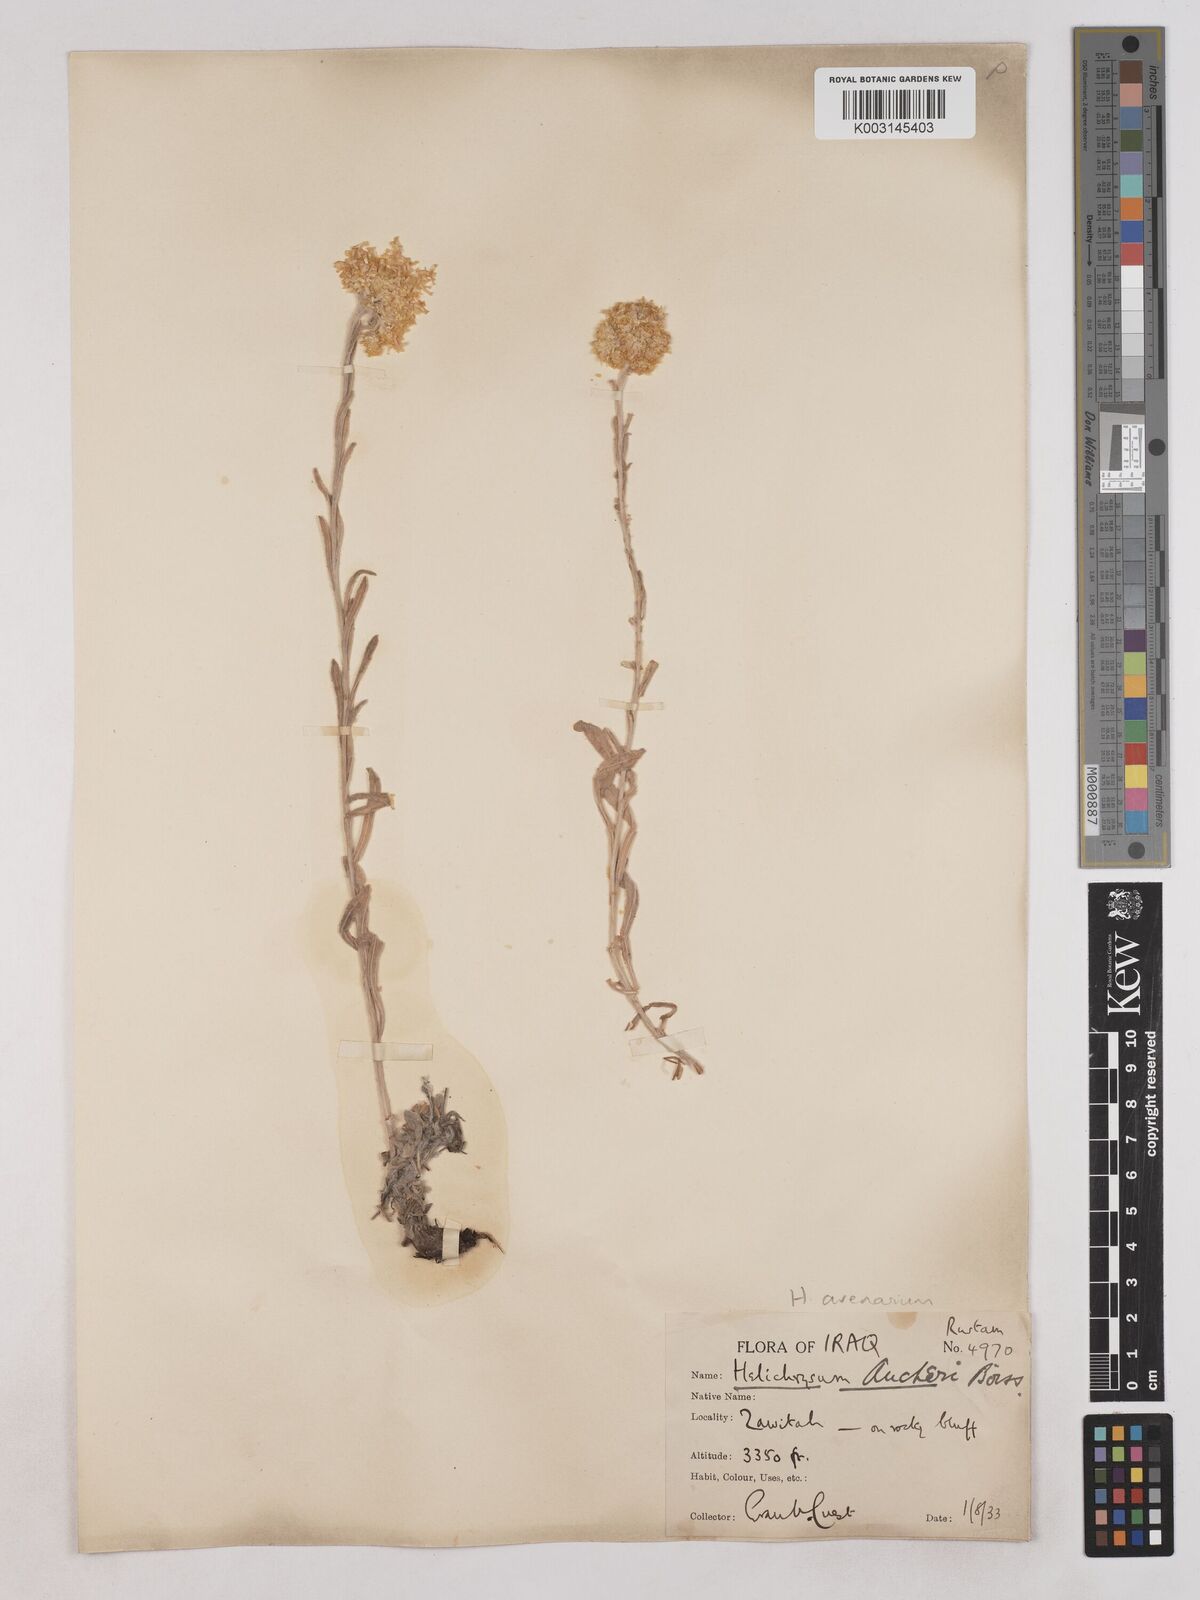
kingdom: Plantae
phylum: Tracheophyta
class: Magnoliopsida
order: Asterales
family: Asteraceae
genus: Helichrysum
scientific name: Helichrysum arenarium
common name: Strawflower
